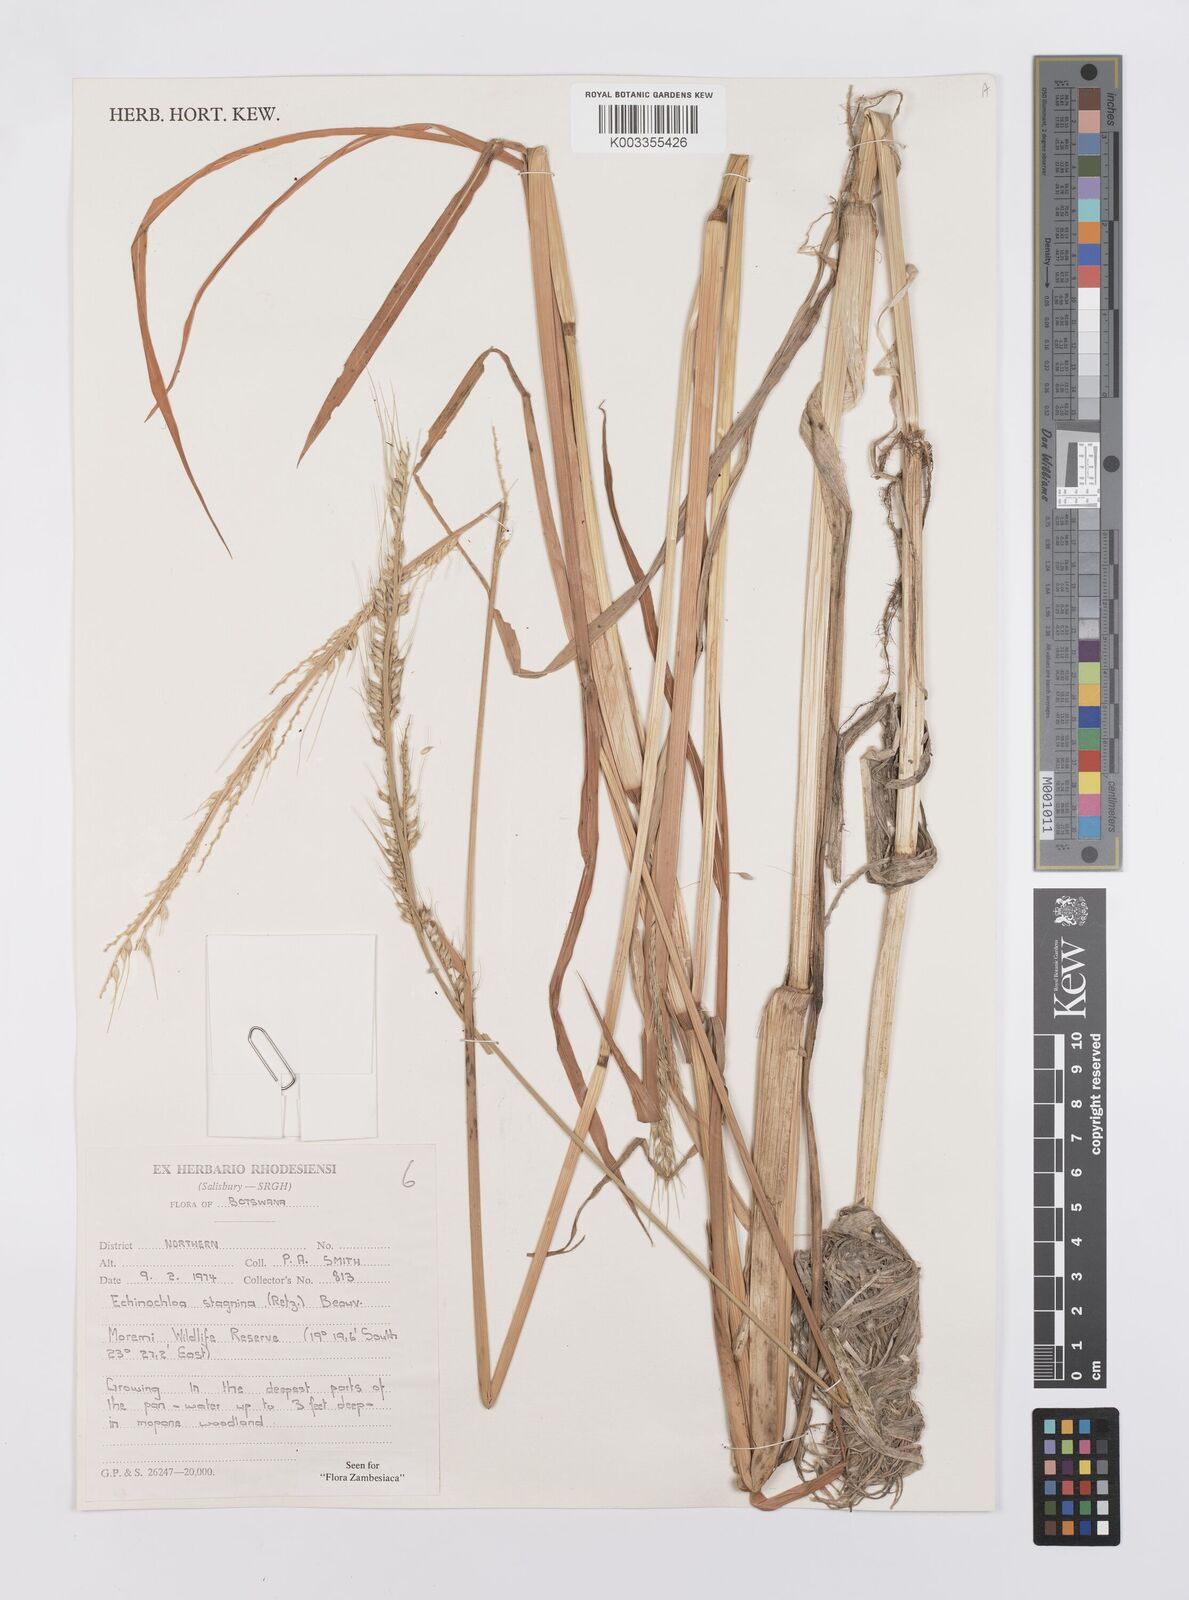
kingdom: Plantae
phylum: Tracheophyta
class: Liliopsida
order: Poales
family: Poaceae
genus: Echinochloa
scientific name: Echinochloa stagnina
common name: Burgu grass
